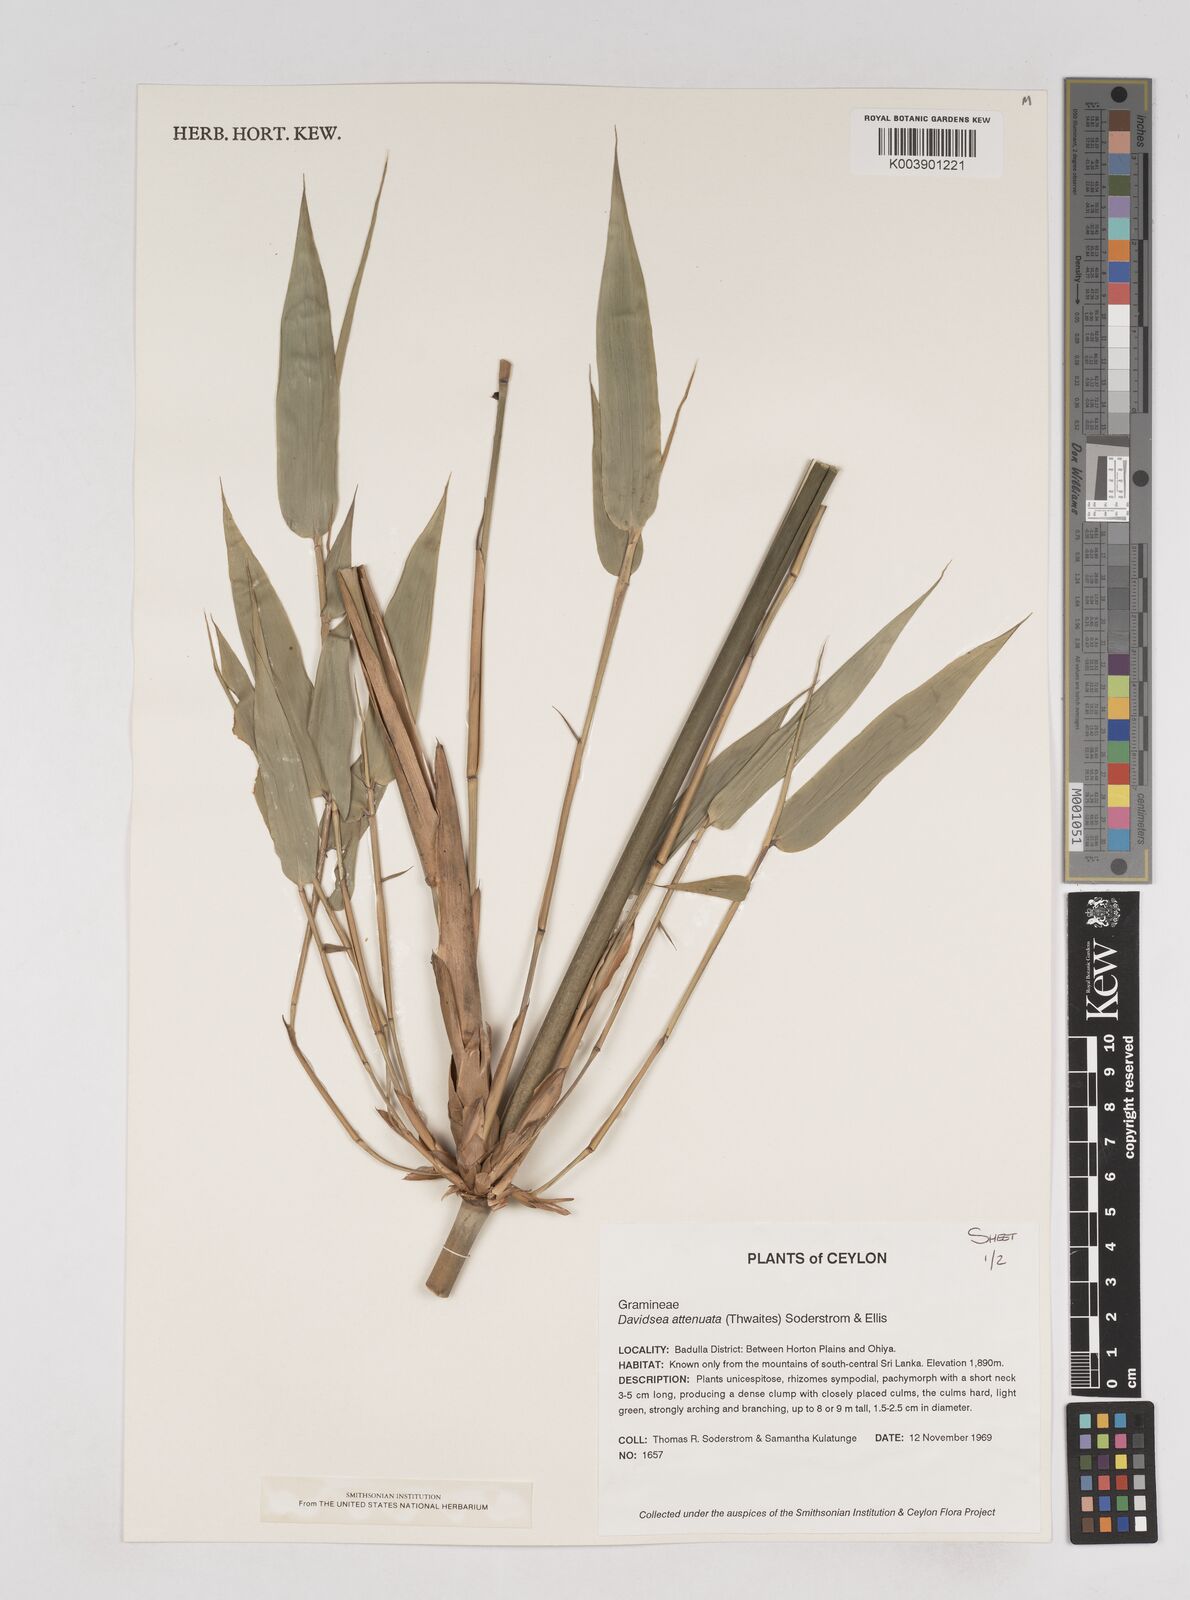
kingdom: Plantae
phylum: Tracheophyta
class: Liliopsida
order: Poales
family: Poaceae
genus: Davidsea
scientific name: Davidsea
